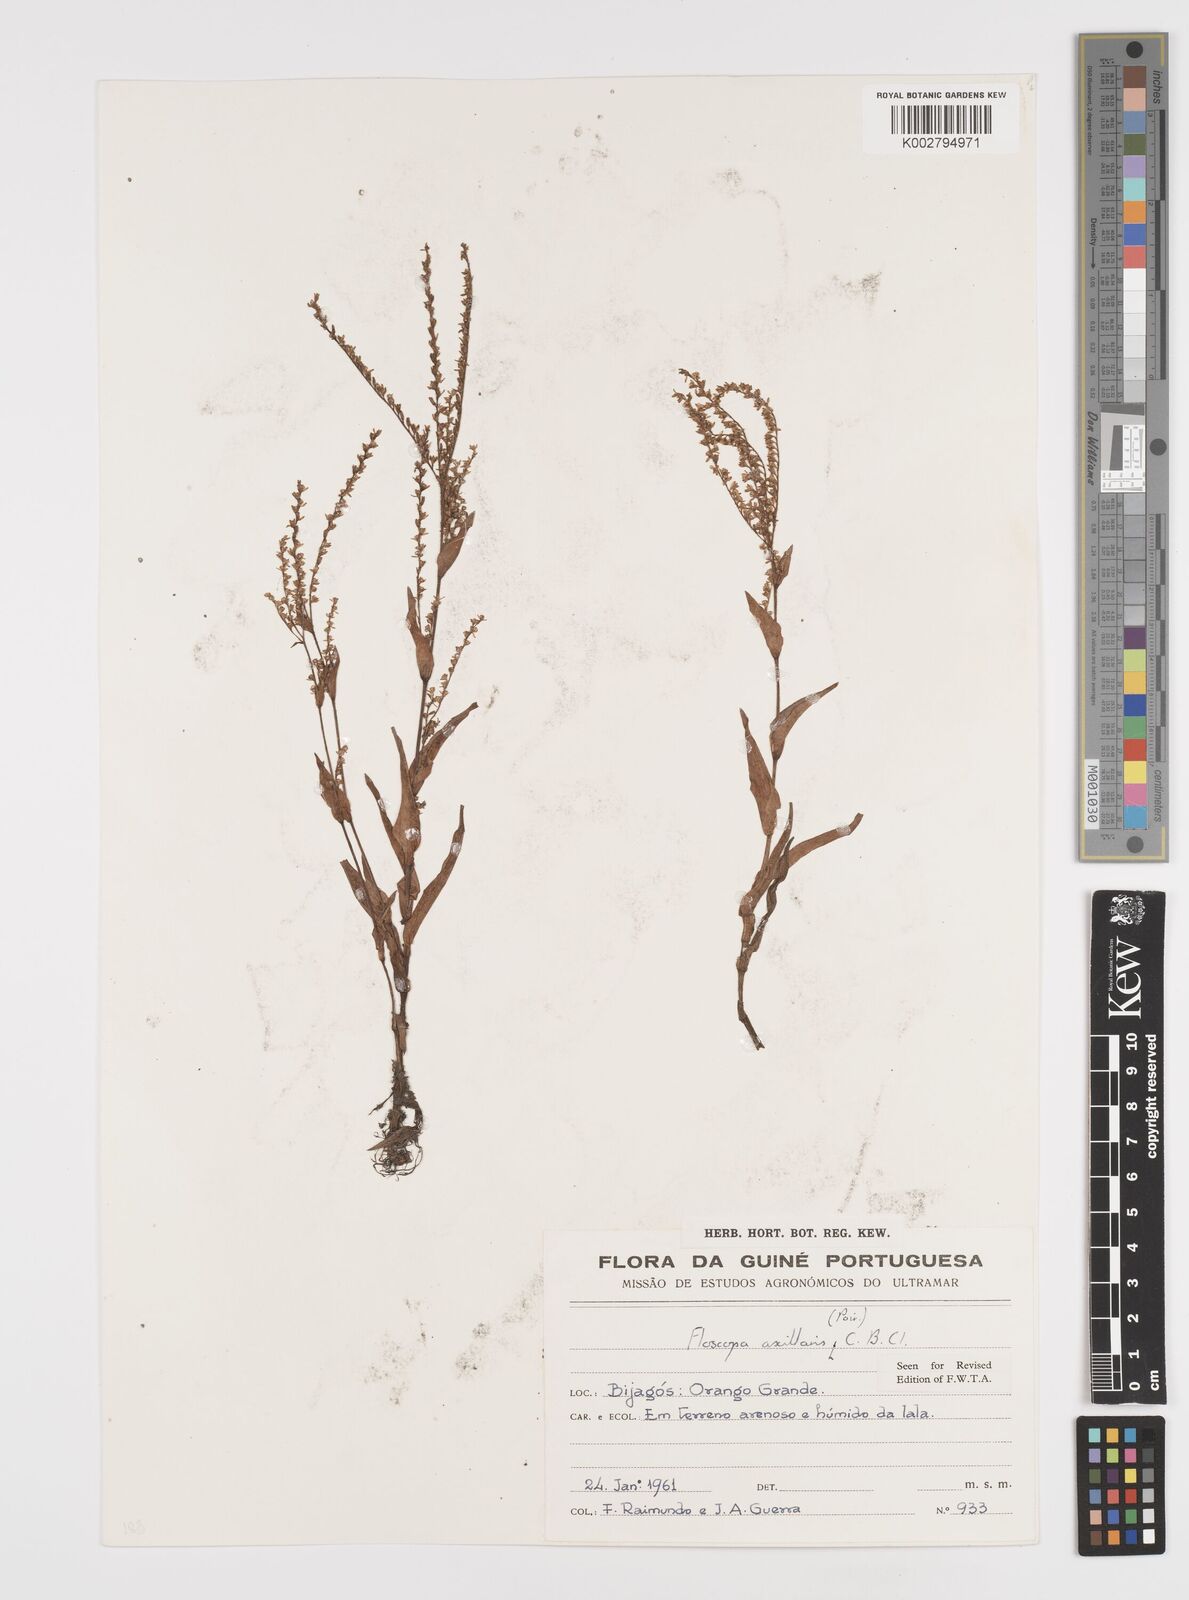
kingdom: Plantae
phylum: Tracheophyta
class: Liliopsida
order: Commelinales
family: Commelinaceae
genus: Floscopa
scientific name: Floscopa axillaris
